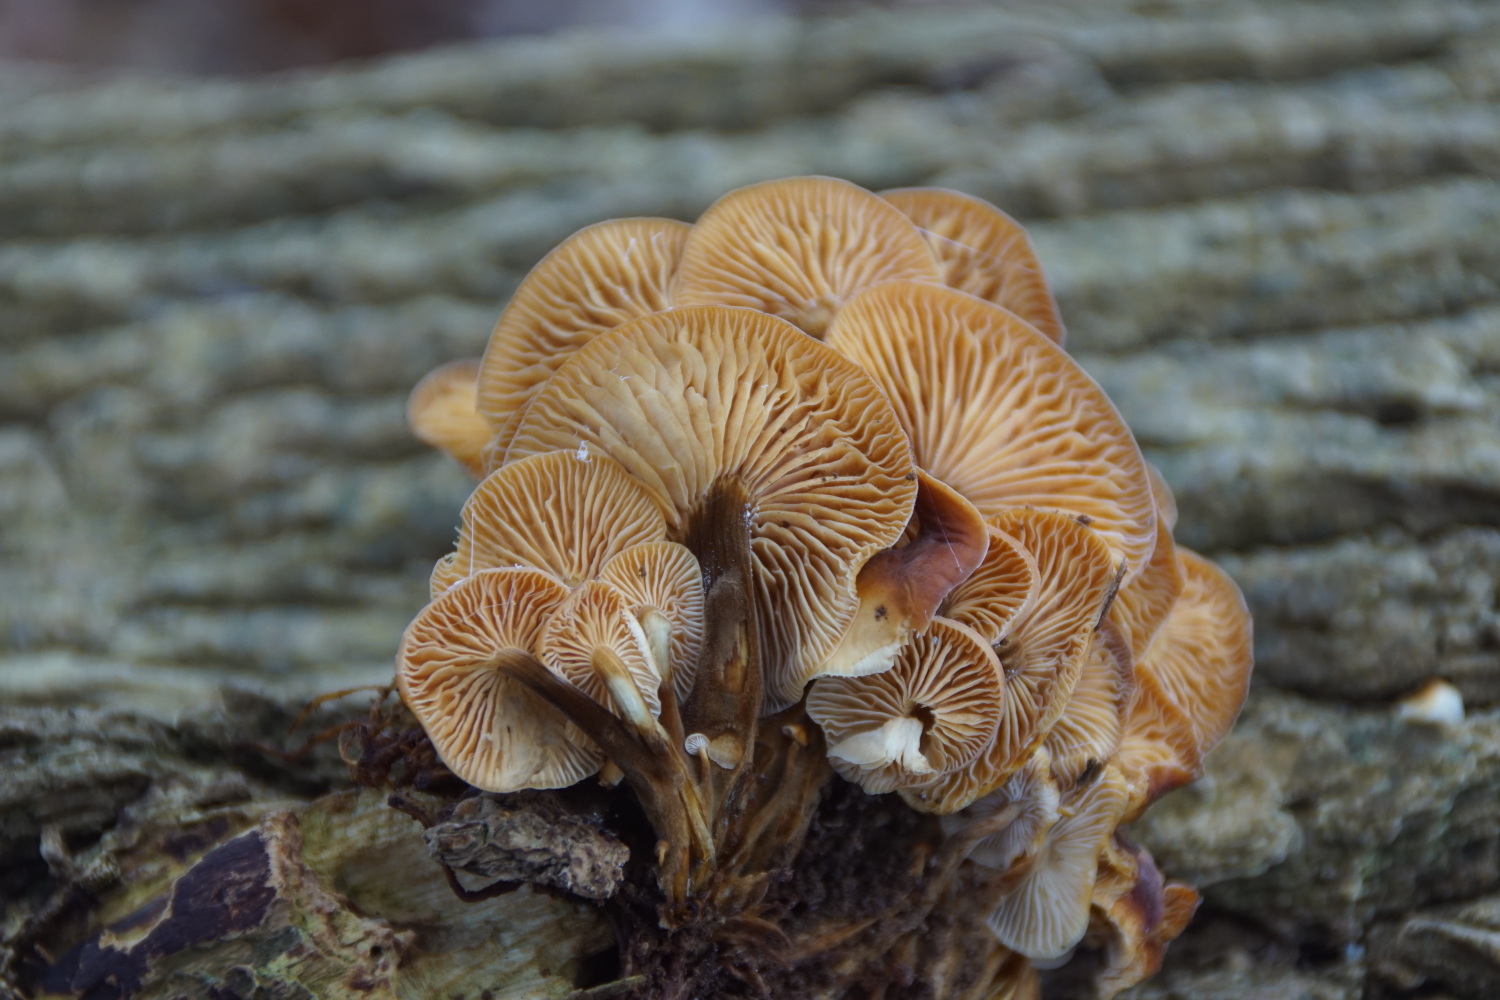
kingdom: Fungi
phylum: Basidiomycota
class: Agaricomycetes
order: Agaricales
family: Physalacriaceae
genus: Flammulina
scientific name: Flammulina velutipes
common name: gul fløjlsfod
